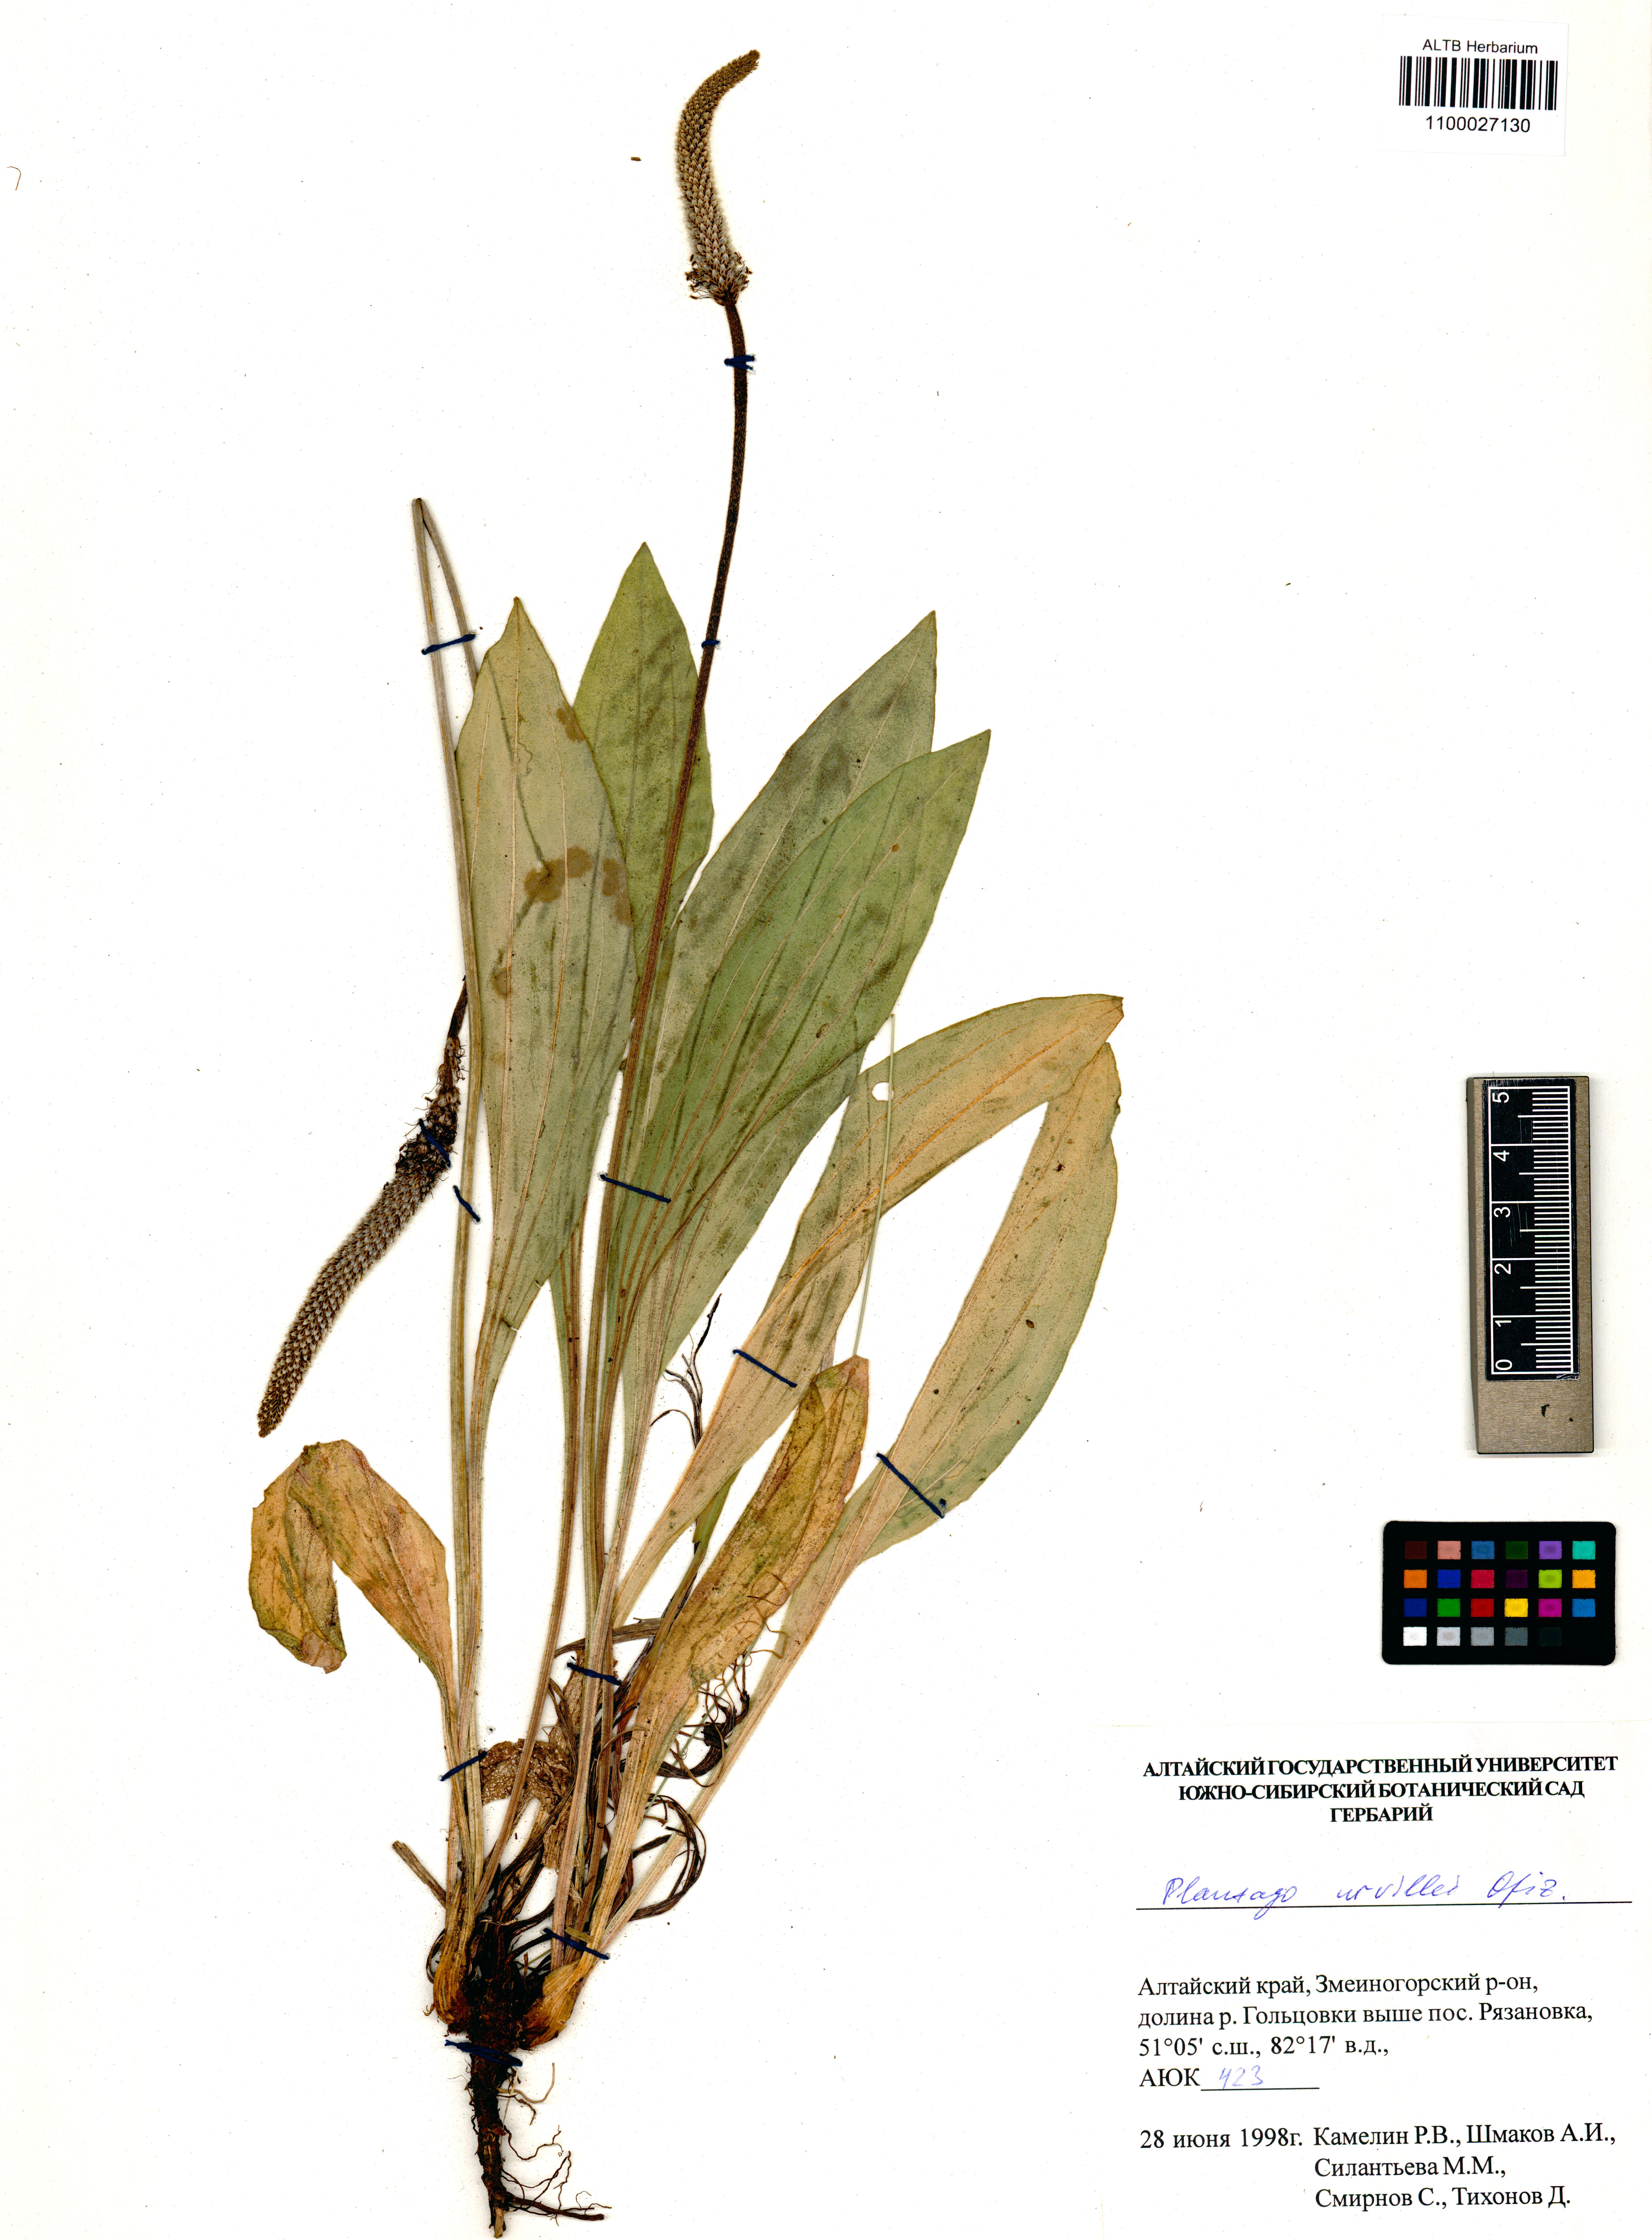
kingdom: Plantae
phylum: Tracheophyta
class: Magnoliopsida
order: Lamiales
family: Plantaginaceae
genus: Plantago
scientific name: Plantago urvillei
